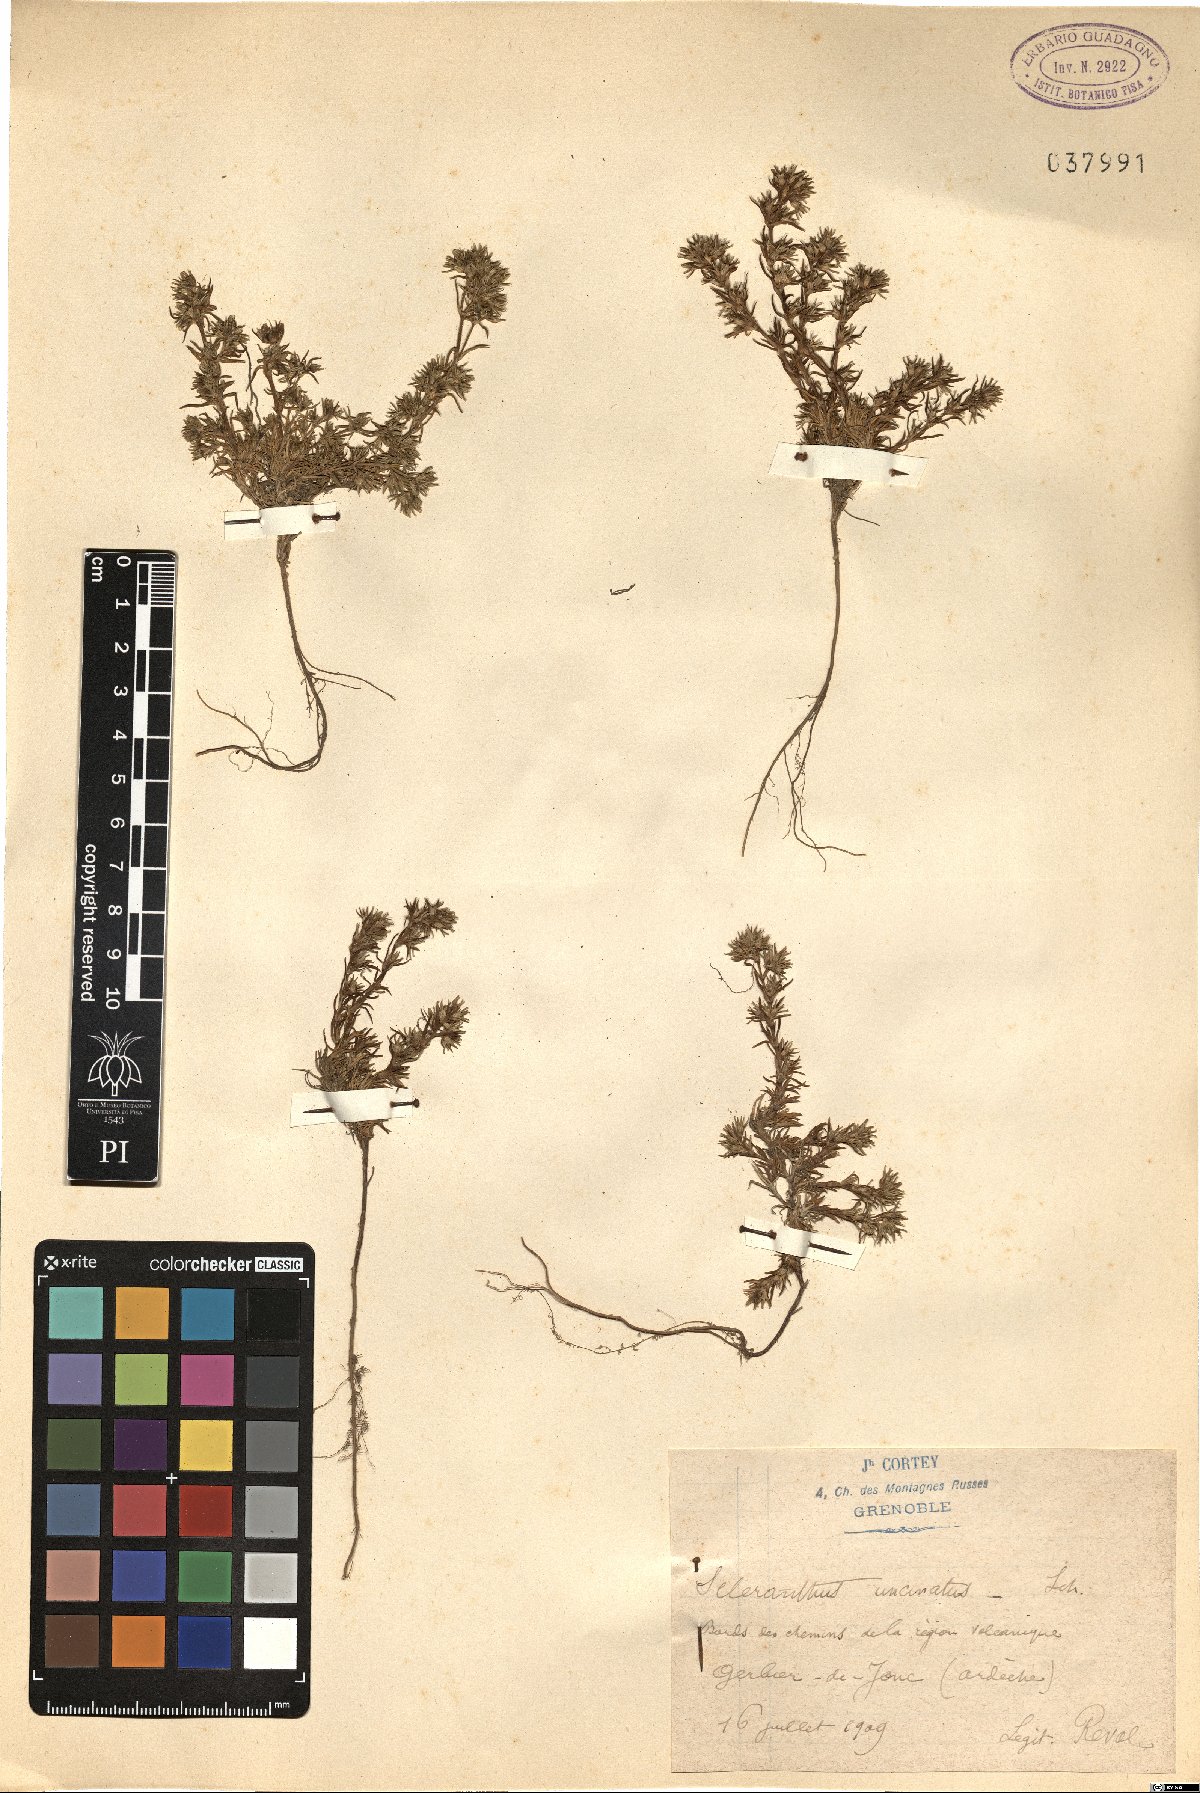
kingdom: Plantae
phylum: Tracheophyta
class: Magnoliopsida
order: Caryophyllales
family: Caryophyllaceae
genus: Scleranthus
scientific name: Scleranthus uncinatus
